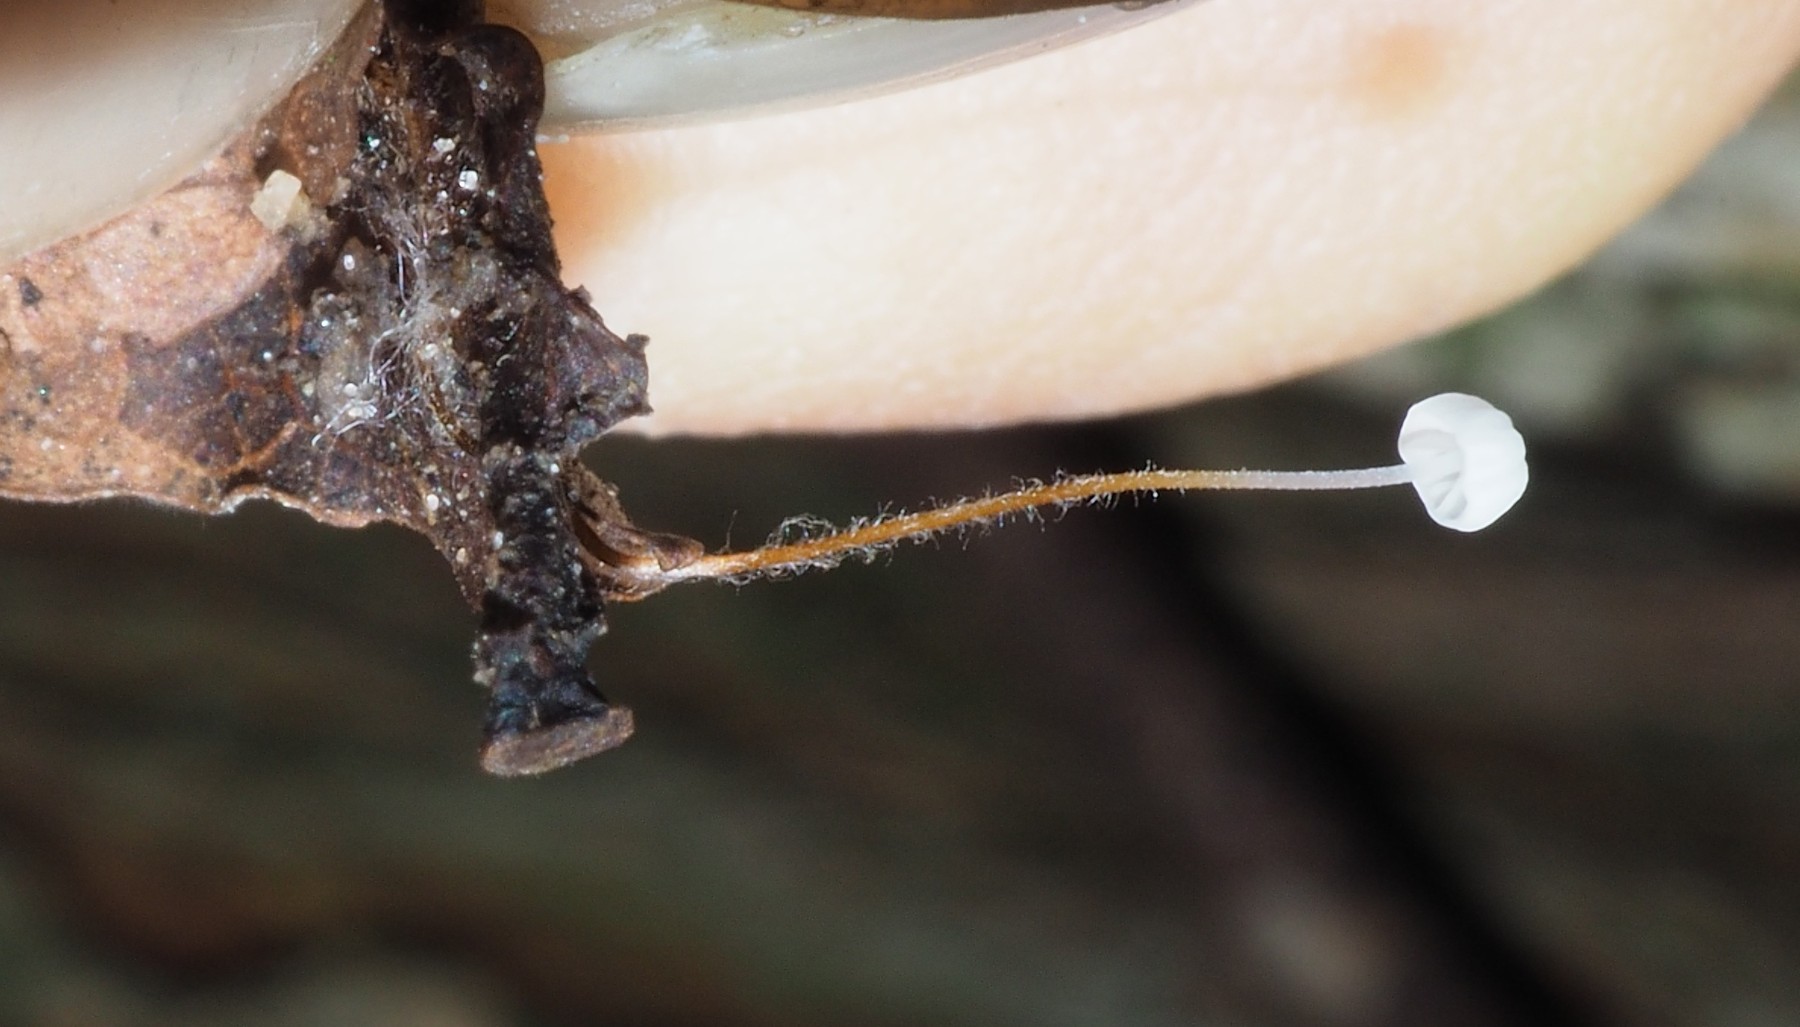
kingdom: Fungi
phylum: Basidiomycota
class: Agaricomycetes
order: Agaricales
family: Physalacriaceae
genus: Rhizomarasmius
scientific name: Rhizomarasmius setosus
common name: bøgeblads-bruskhat
